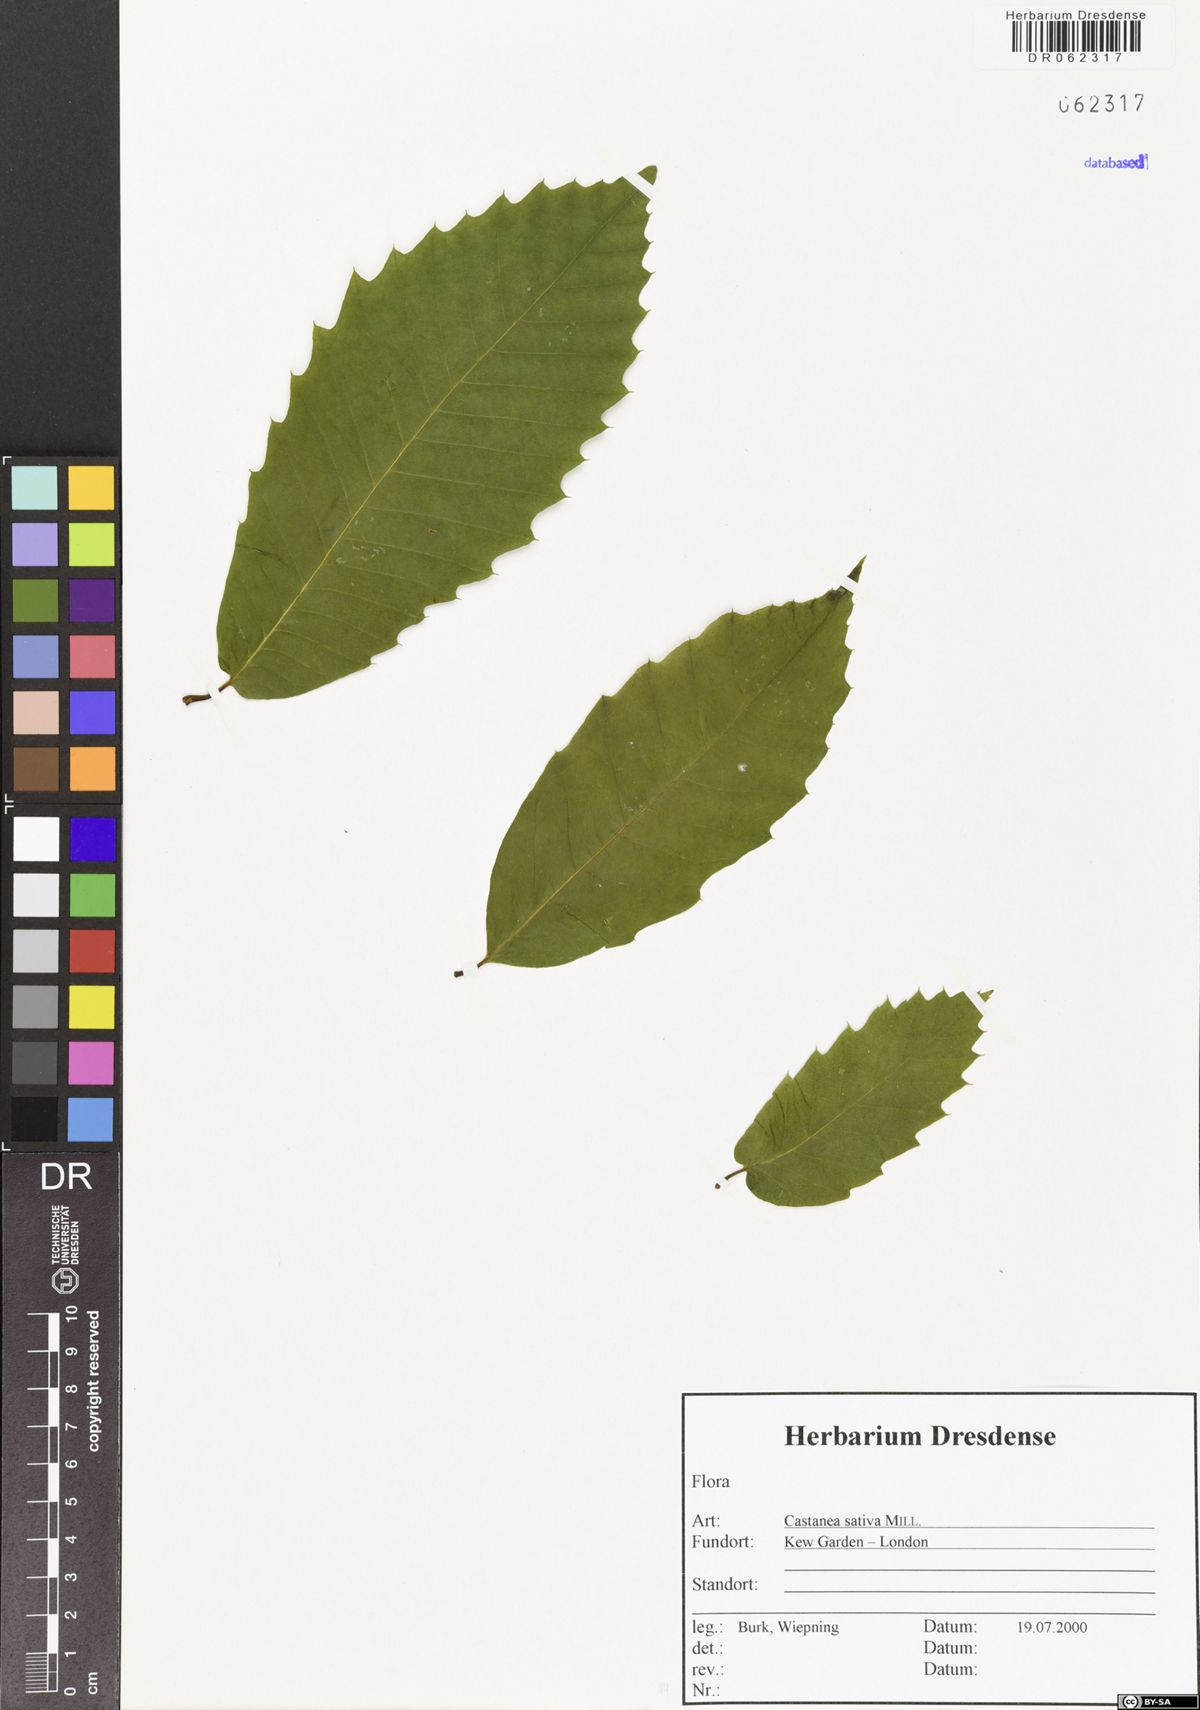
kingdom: Plantae
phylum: Tracheophyta
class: Magnoliopsida
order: Fagales
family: Fagaceae
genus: Castanea
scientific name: Castanea sativa
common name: Sweet chestnut
